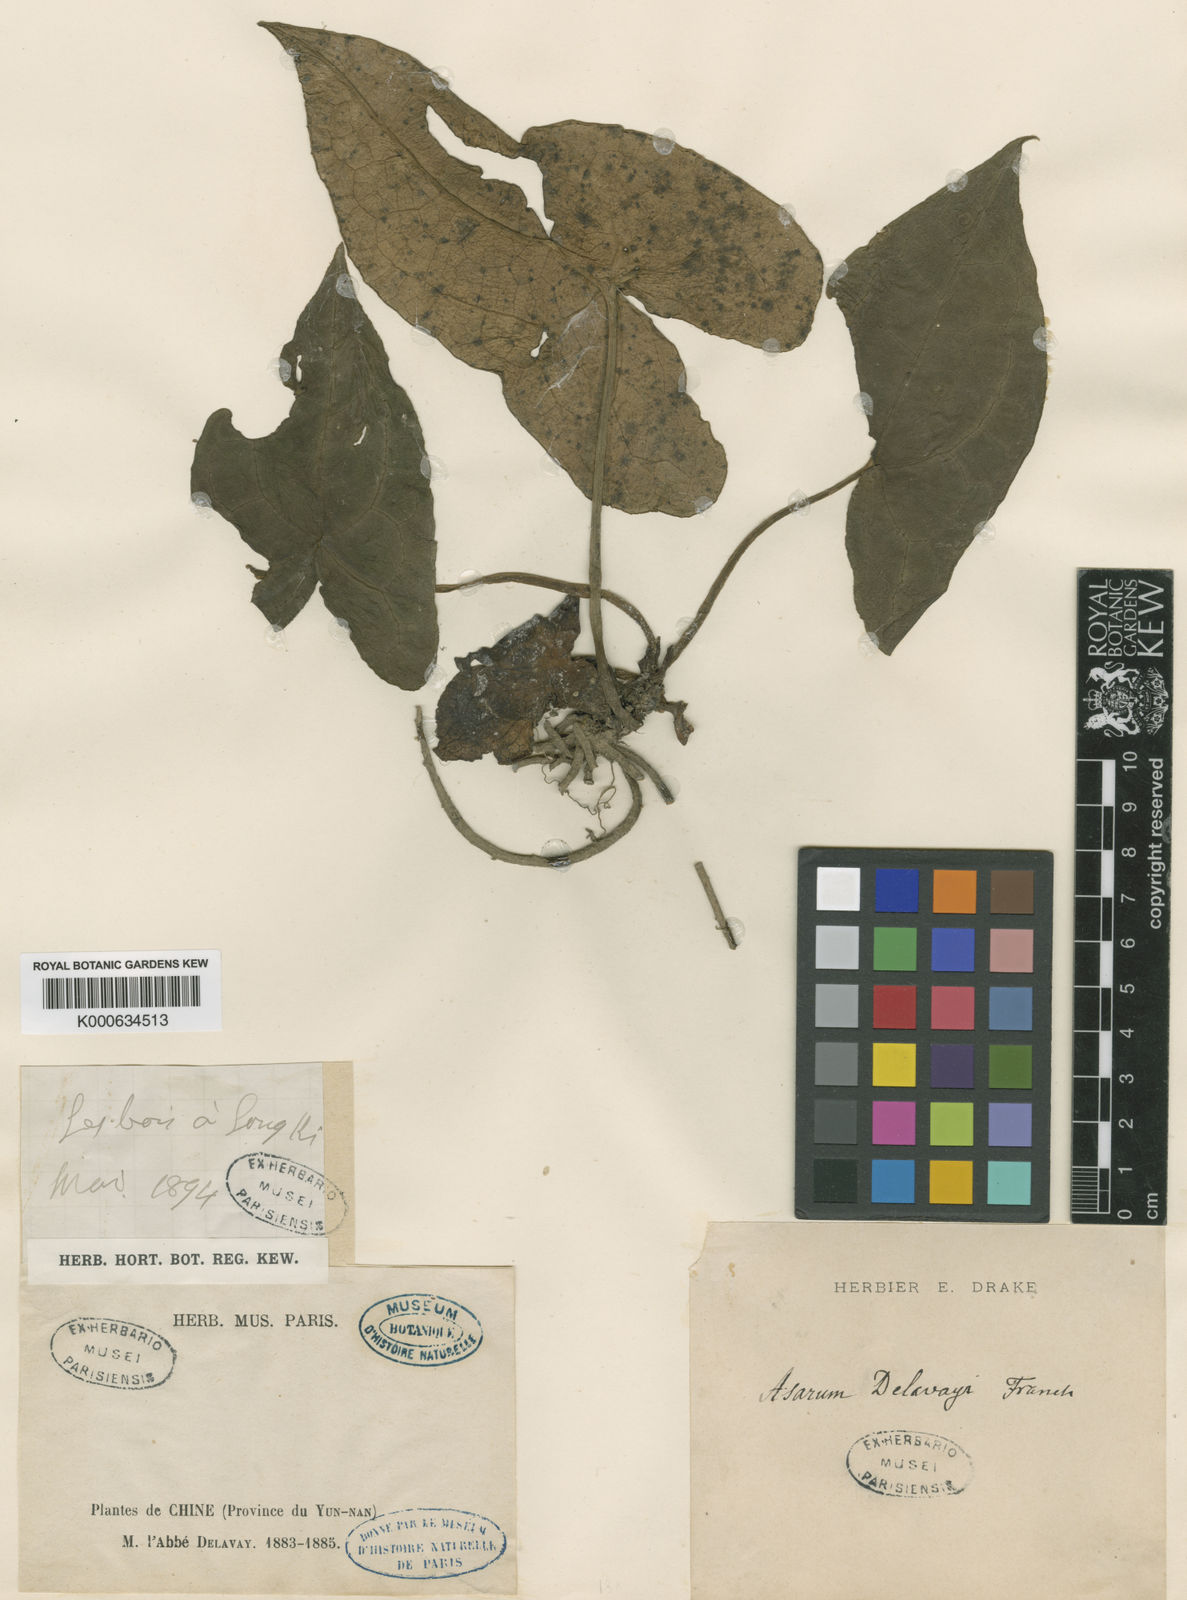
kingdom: Plantae
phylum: Tracheophyta
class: Magnoliopsida
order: Piperales
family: Aristolochiaceae
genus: Asarum
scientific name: Asarum delavayi
